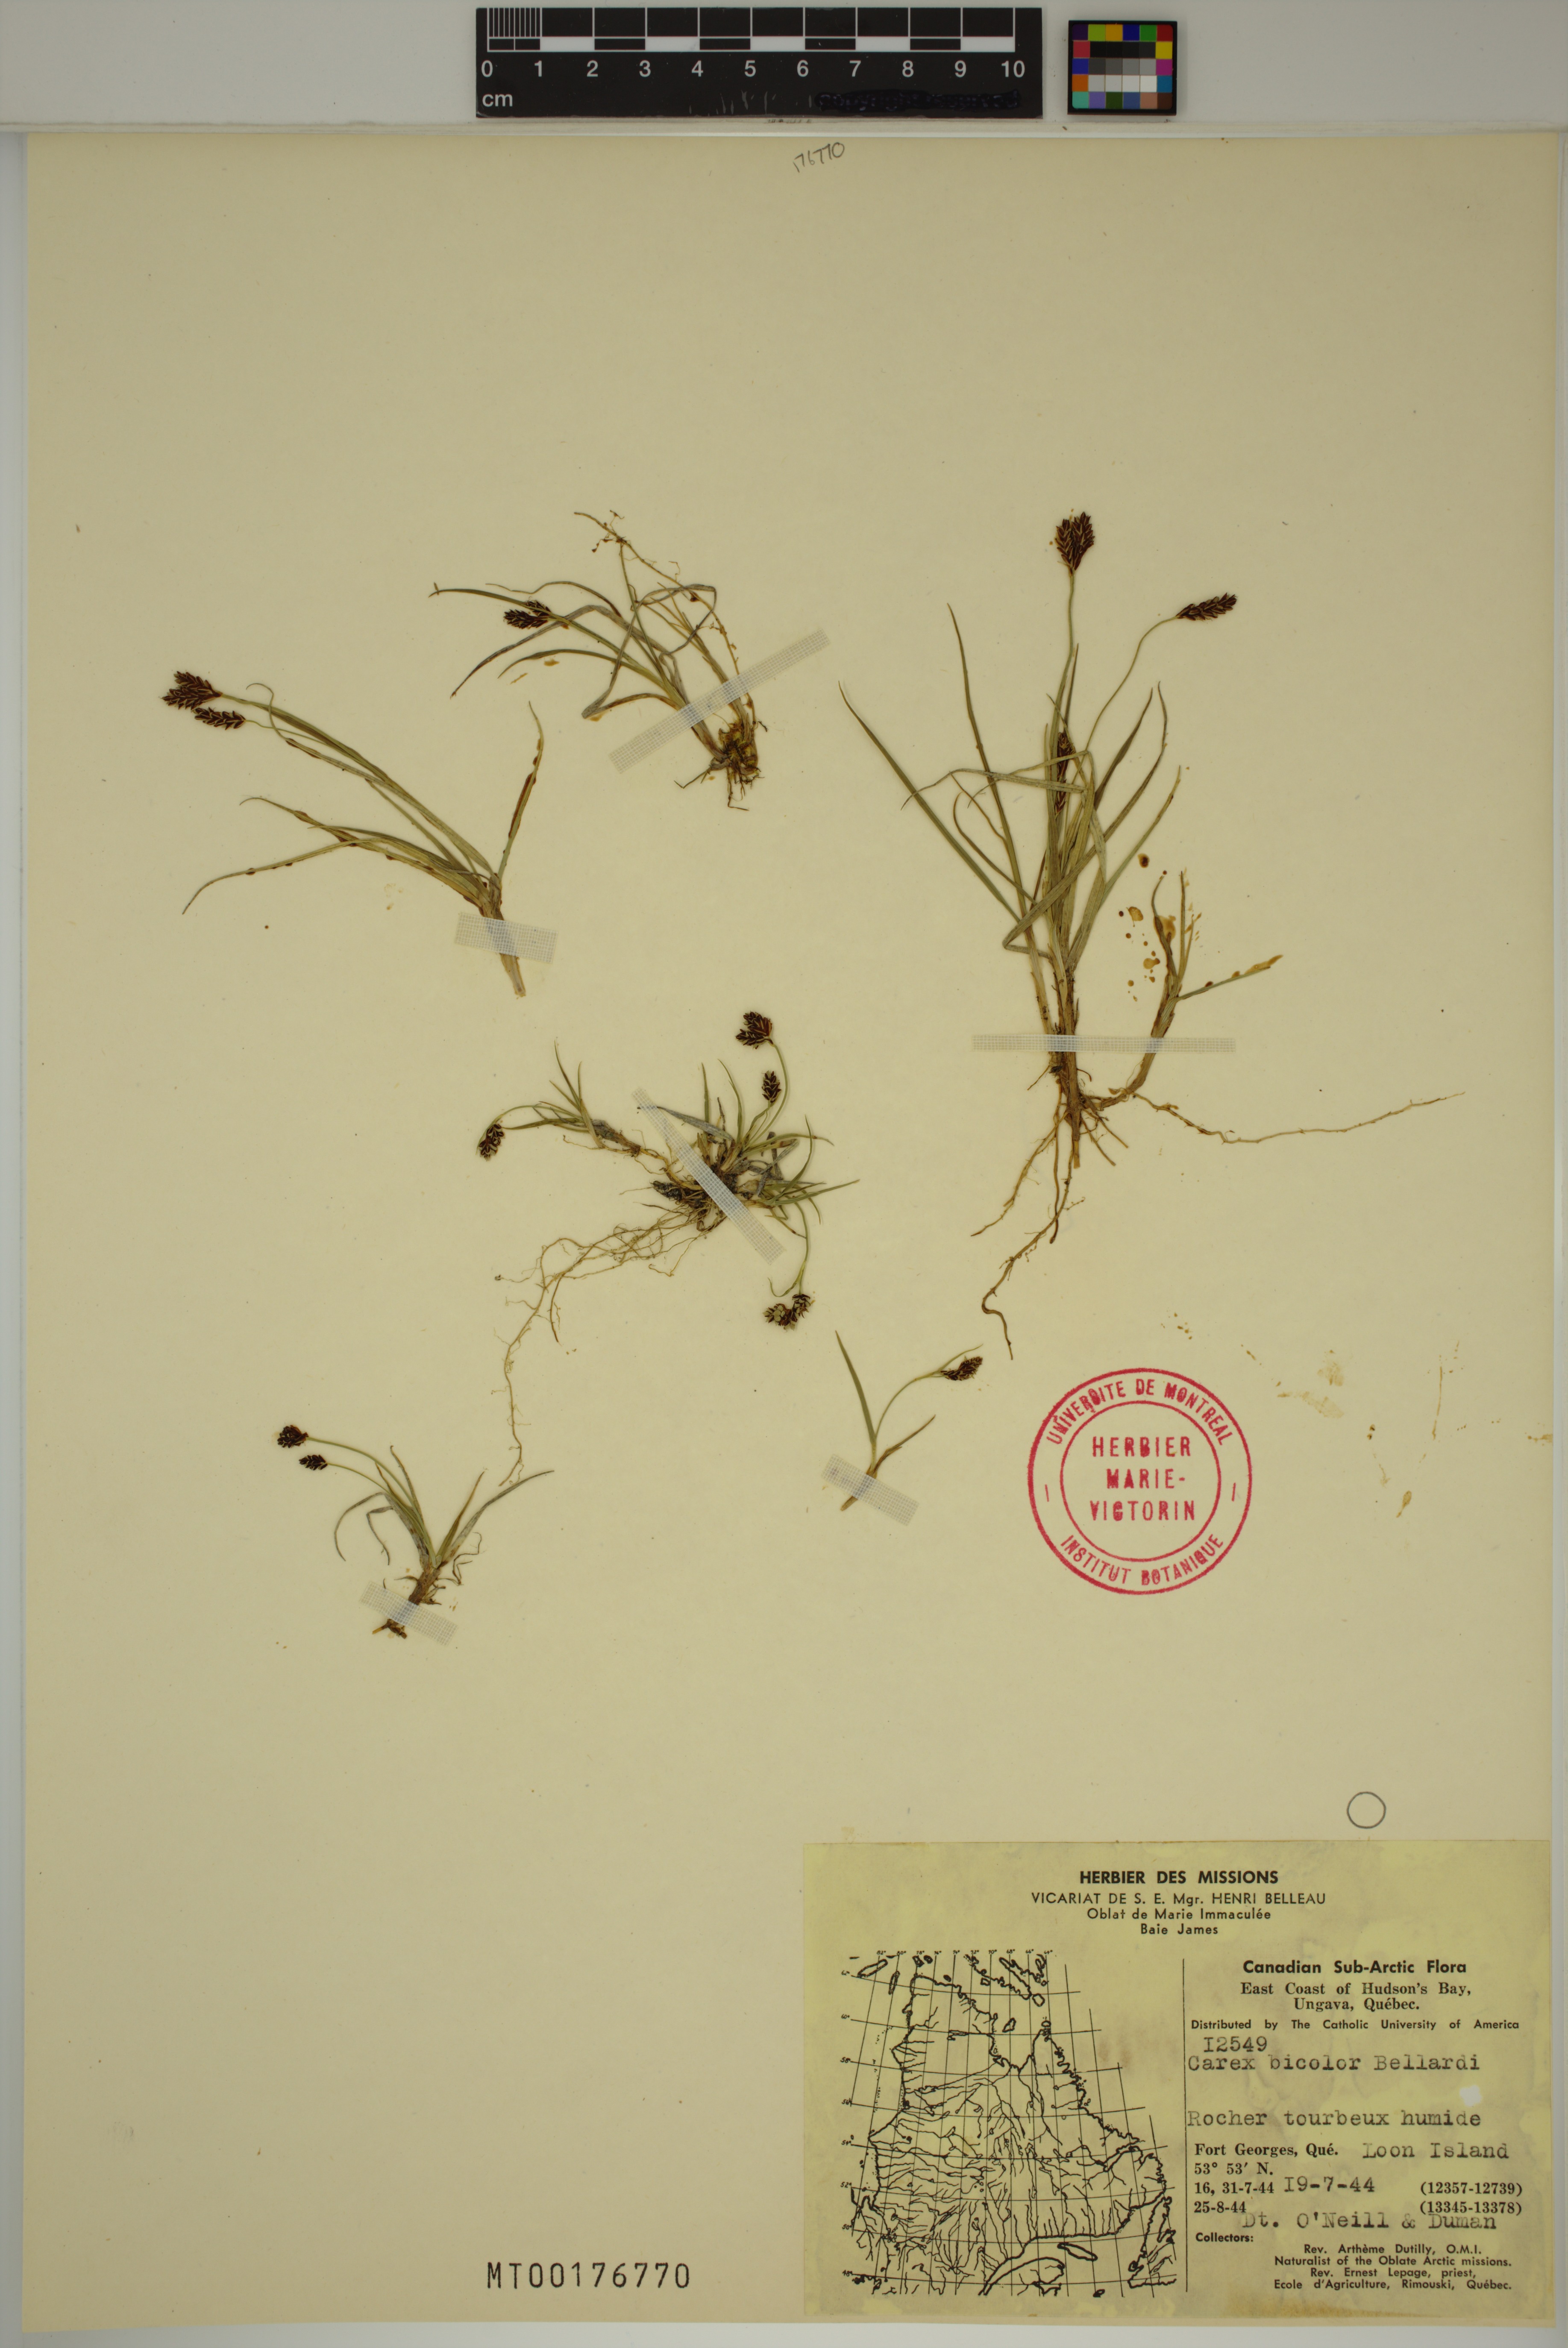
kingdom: Plantae
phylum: Tracheophyta
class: Liliopsida
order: Poales
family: Cyperaceae
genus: Carex
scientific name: Carex bicolor
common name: Bicoloured sedge
